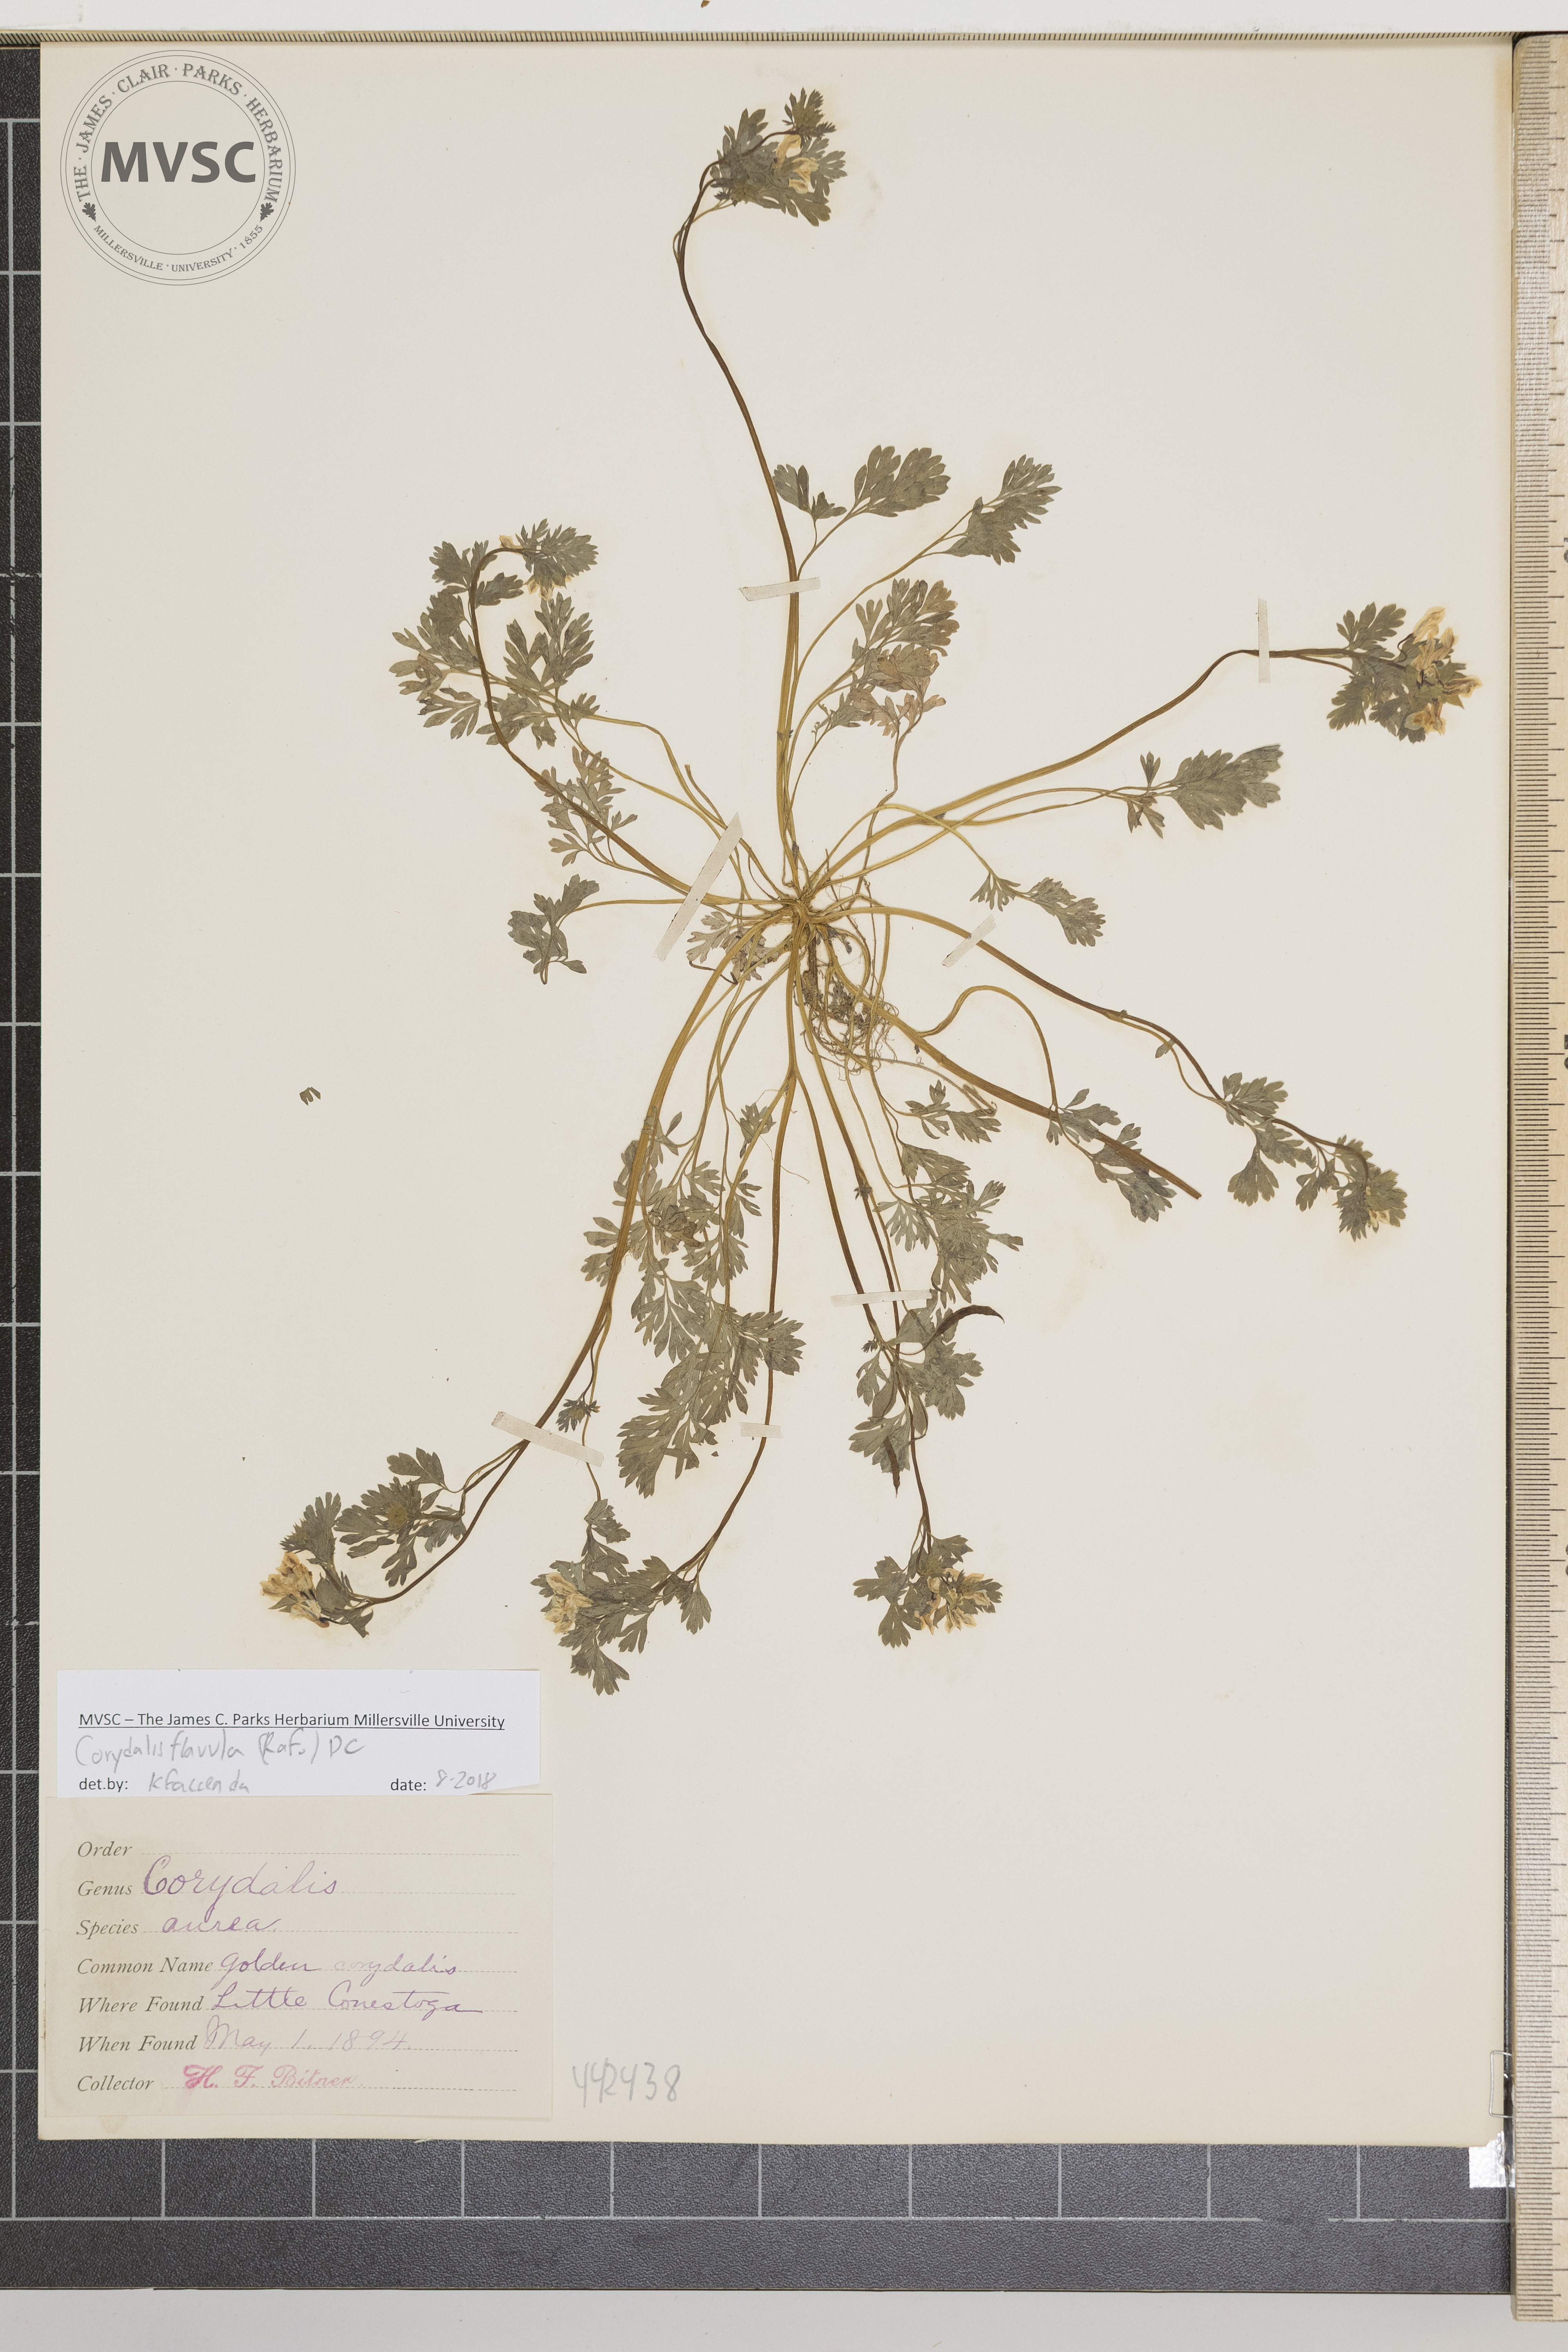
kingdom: Plantae
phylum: Tracheophyta
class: Magnoliopsida
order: Ranunculales
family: Papaveraceae
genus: Corydalis
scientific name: Corydalis flavula
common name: Golden corydalis
